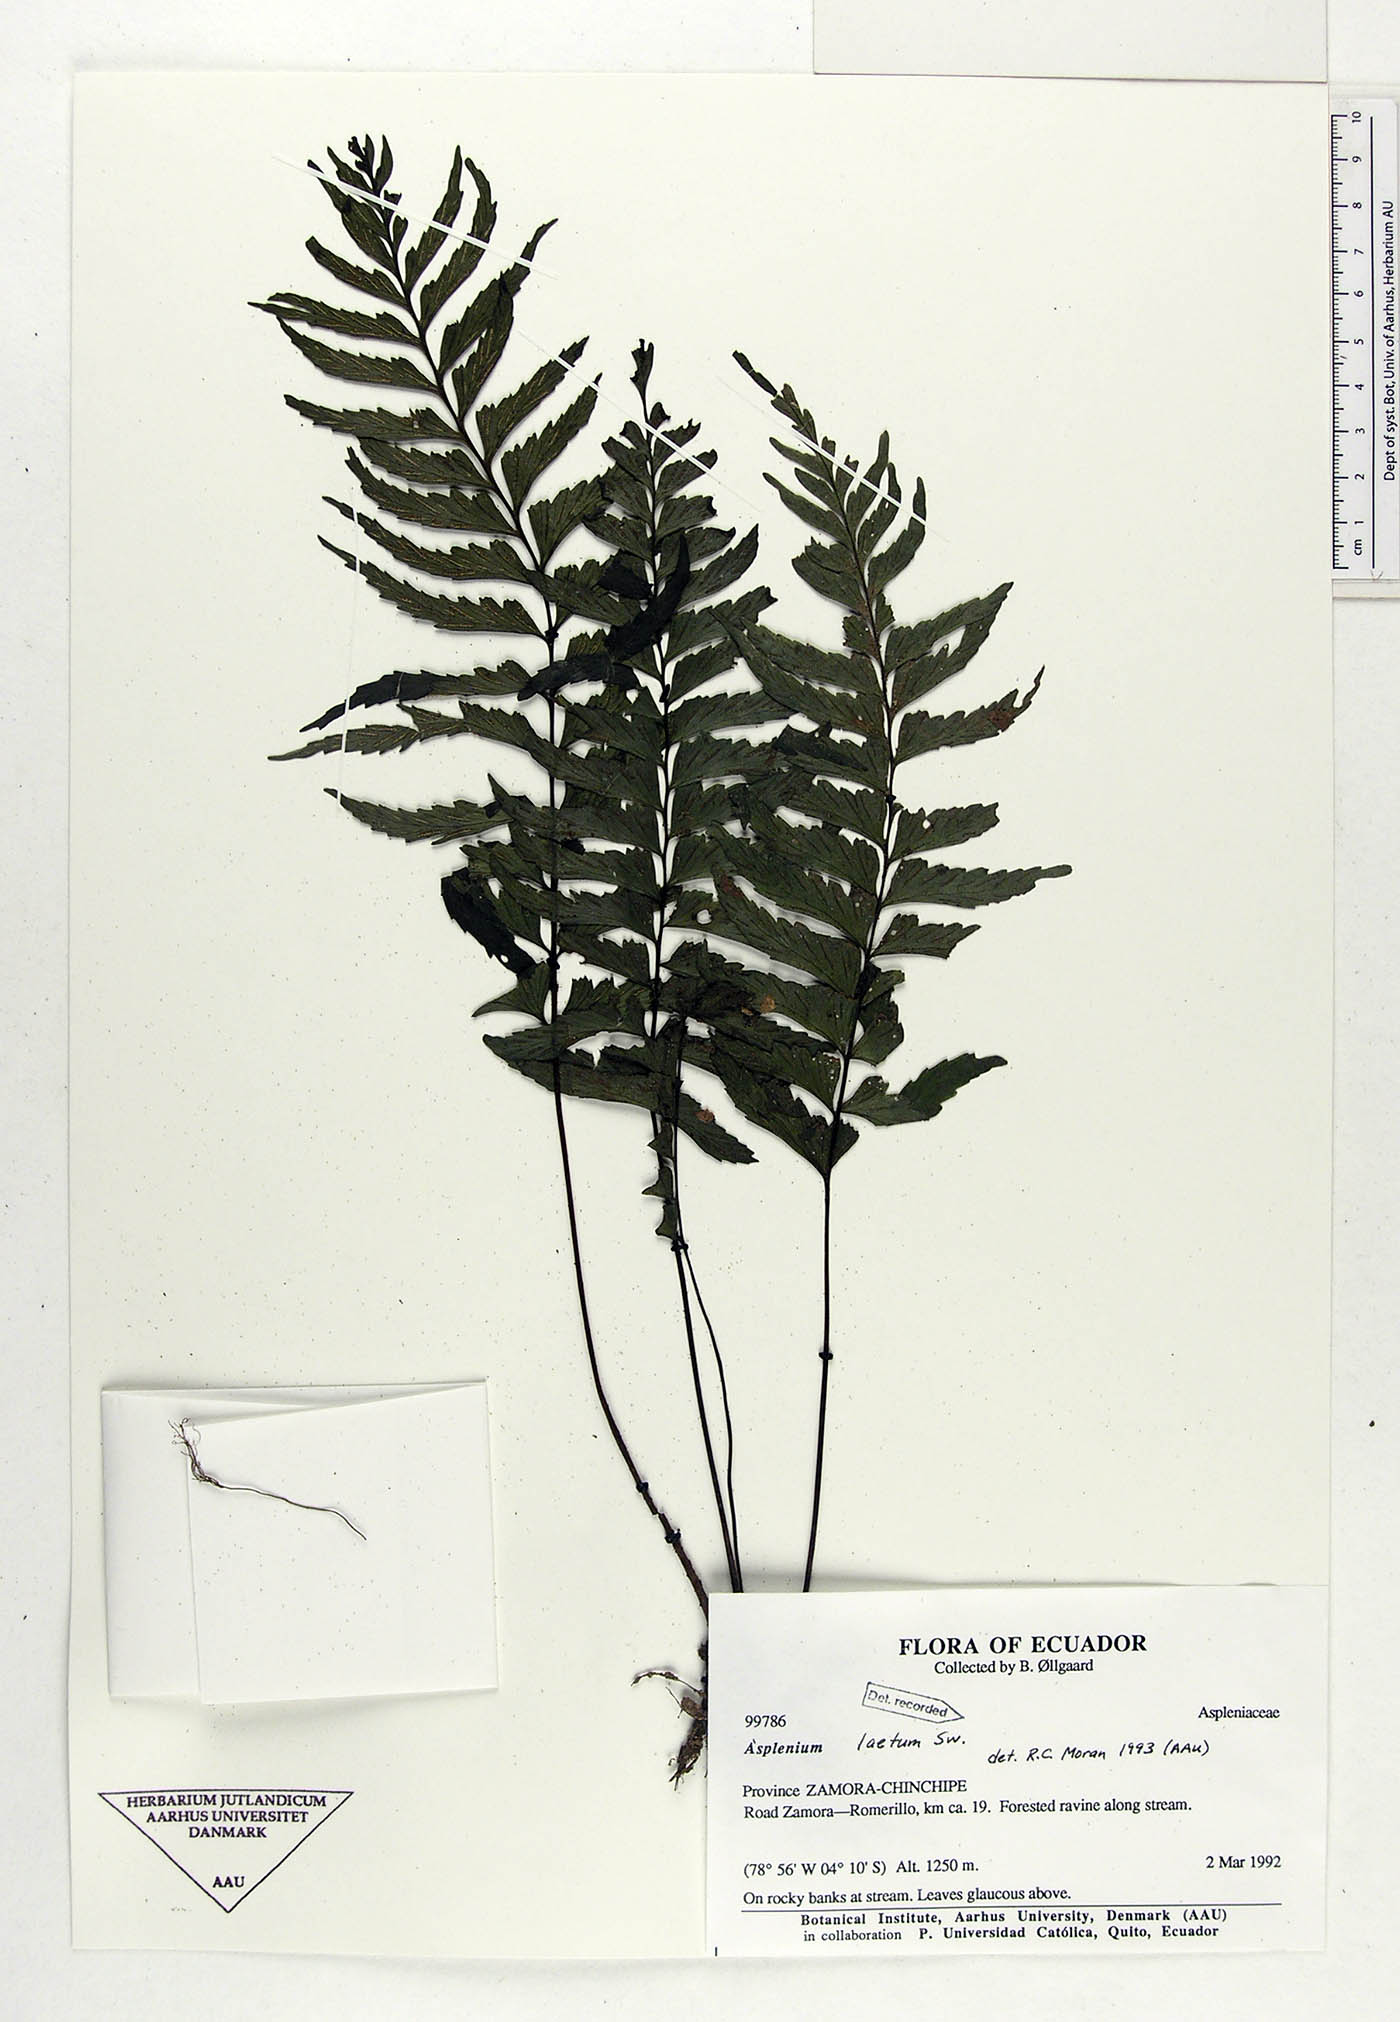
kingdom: Plantae
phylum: Tracheophyta
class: Polypodiopsida
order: Polypodiales
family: Aspleniaceae
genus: Hymenasplenium
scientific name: Hymenasplenium laetum
